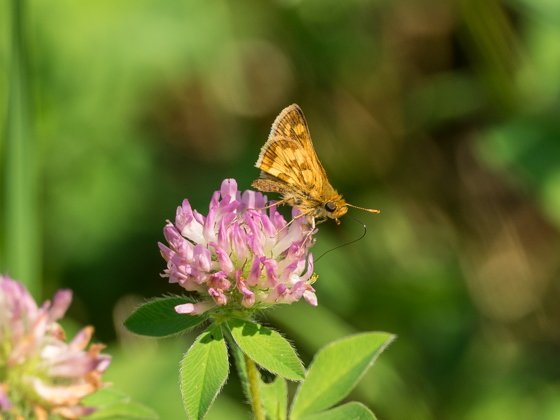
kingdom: Animalia
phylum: Arthropoda
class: Insecta
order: Lepidoptera
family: Hesperiidae
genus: Polites
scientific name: Polites coras
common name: Peck's Skipper
